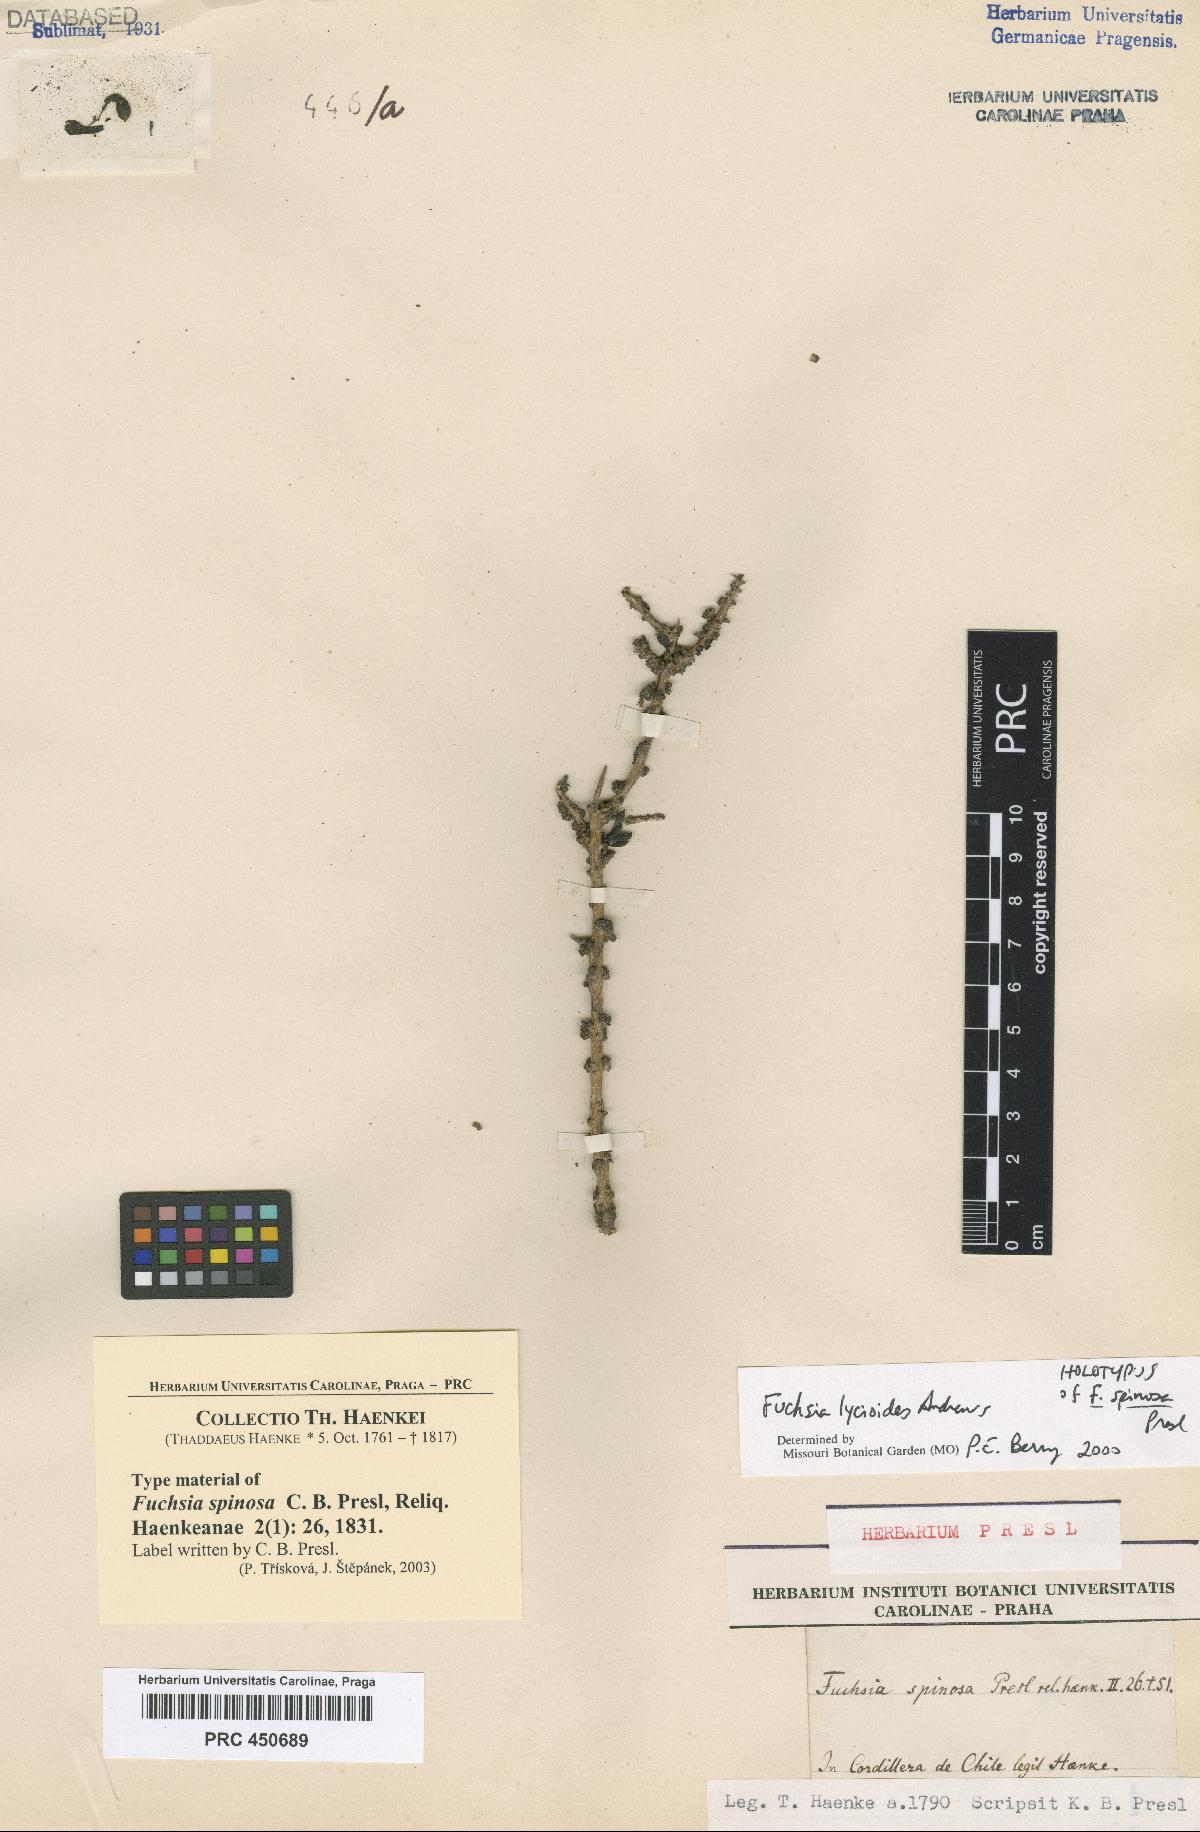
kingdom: Plantae
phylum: Tracheophyta
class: Magnoliopsida
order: Myrtales
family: Onagraceae
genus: Fuchsia
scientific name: Fuchsia lycioides
